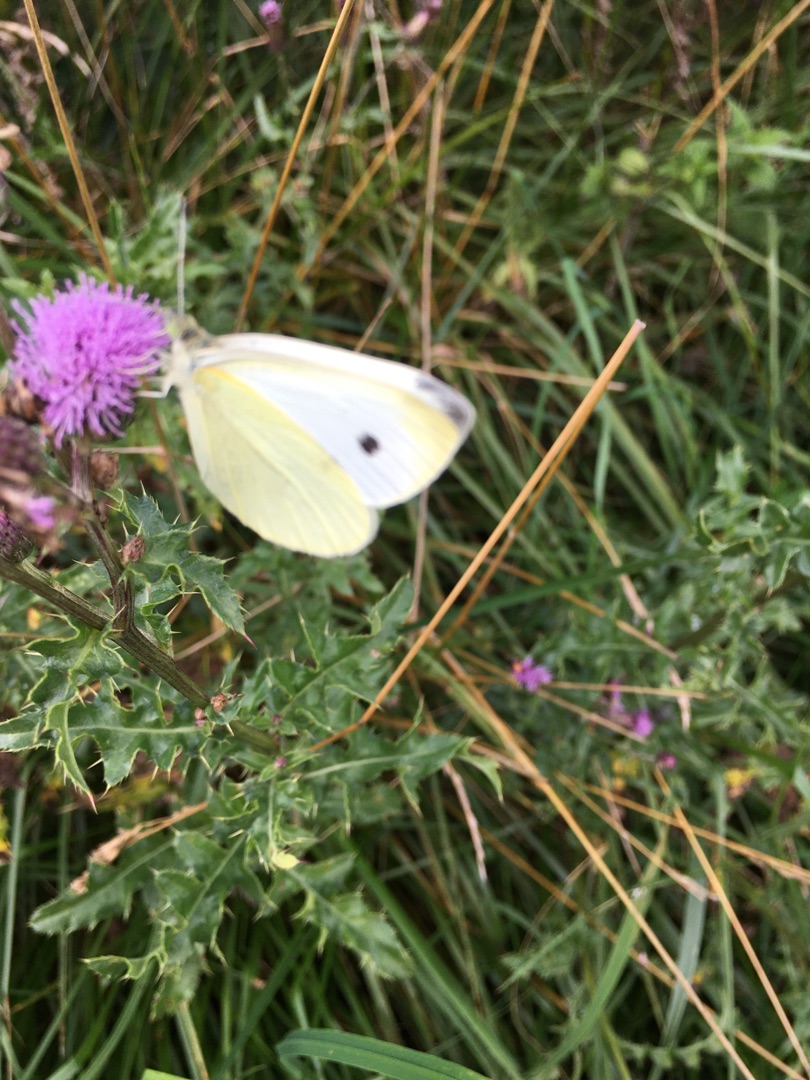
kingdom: Animalia
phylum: Arthropoda
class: Insecta
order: Lepidoptera
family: Pieridae
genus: Pieris
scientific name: Pieris rapae
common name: Lille kålsommerfugl
